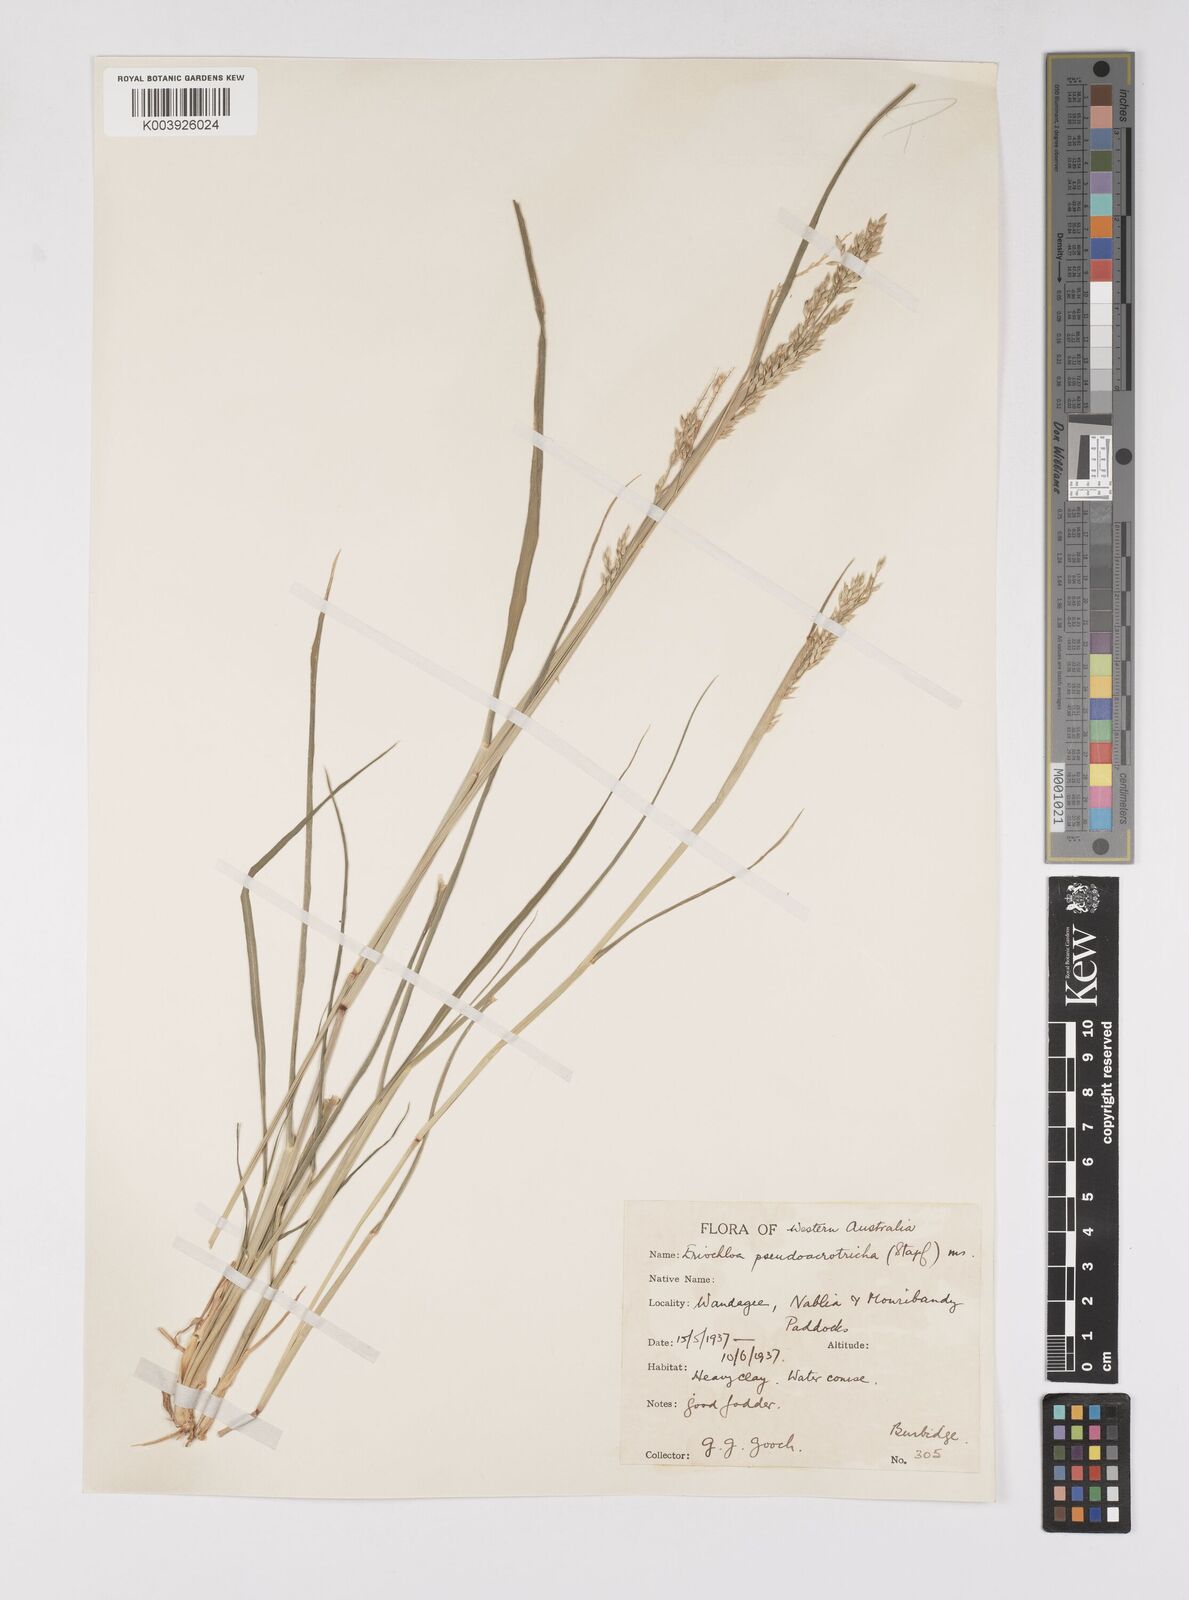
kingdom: Plantae
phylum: Tracheophyta
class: Liliopsida
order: Poales
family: Poaceae
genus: Eriochloa
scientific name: Eriochloa
